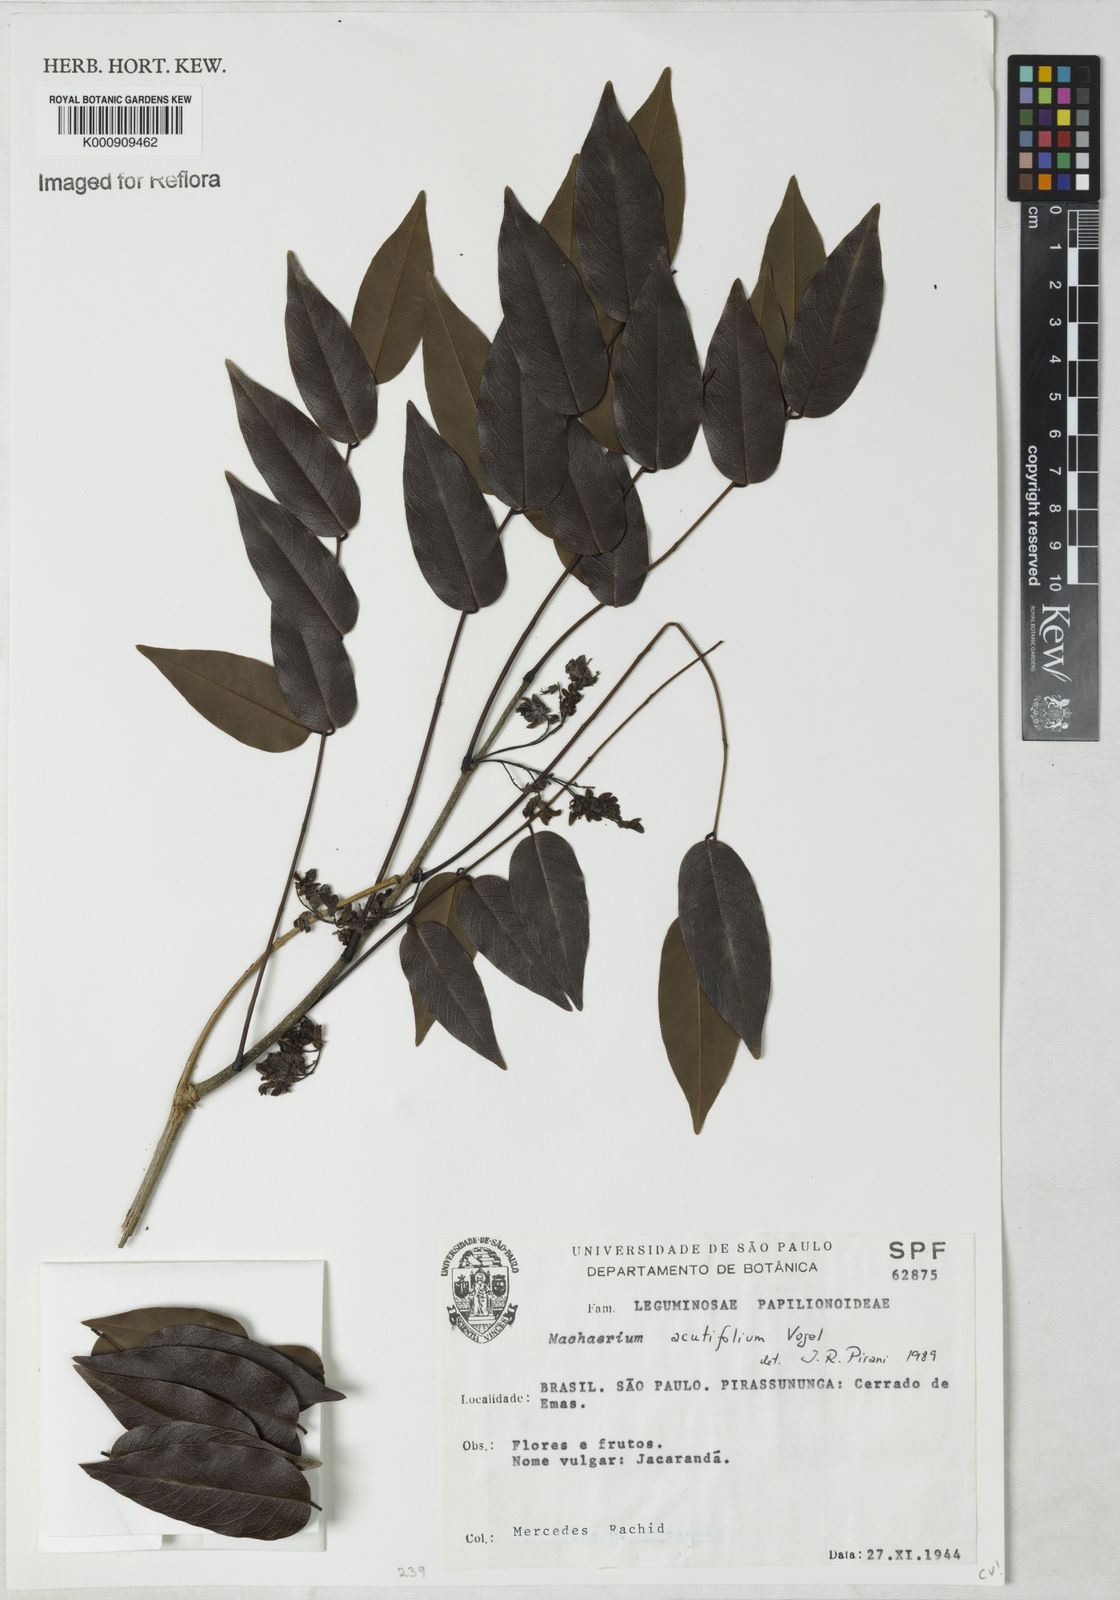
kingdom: Plantae
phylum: Tracheophyta
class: Magnoliopsida
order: Fabales
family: Fabaceae
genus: Machaerium
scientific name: Machaerium acutifolium
